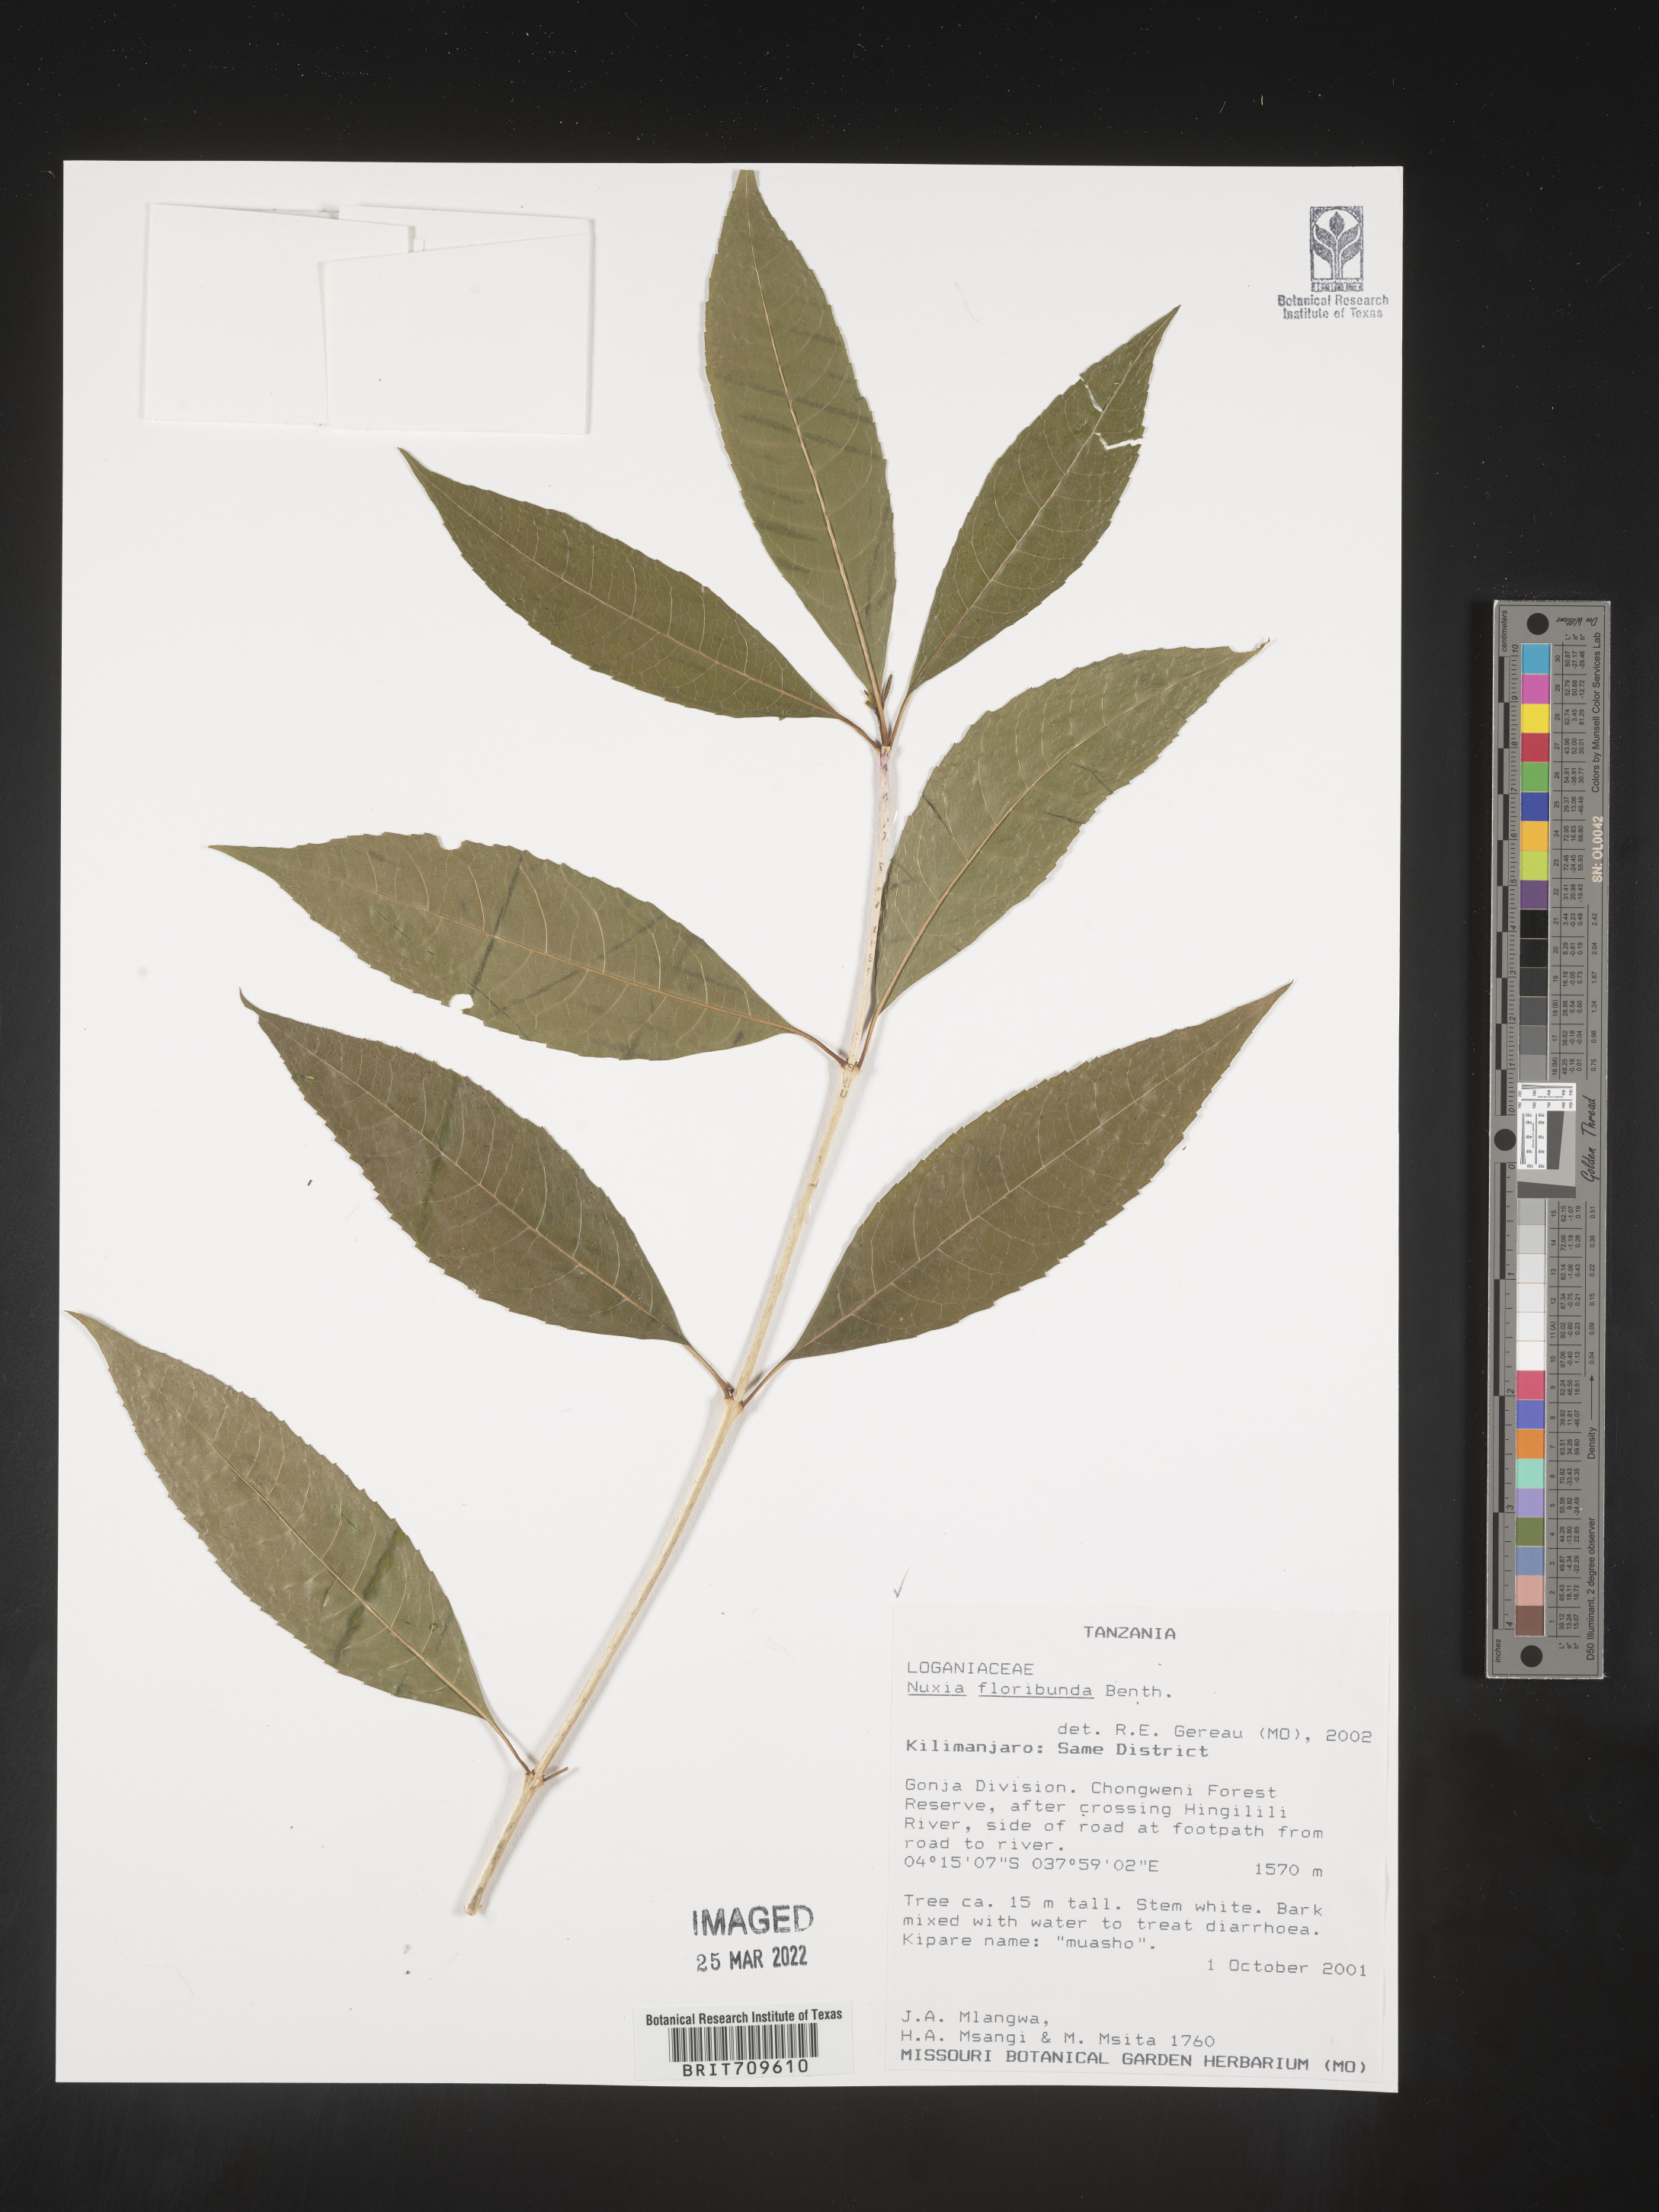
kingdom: Plantae
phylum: Tracheophyta
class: Magnoliopsida
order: Lamiales
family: Stilbaceae
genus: Nuxia
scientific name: Nuxia
